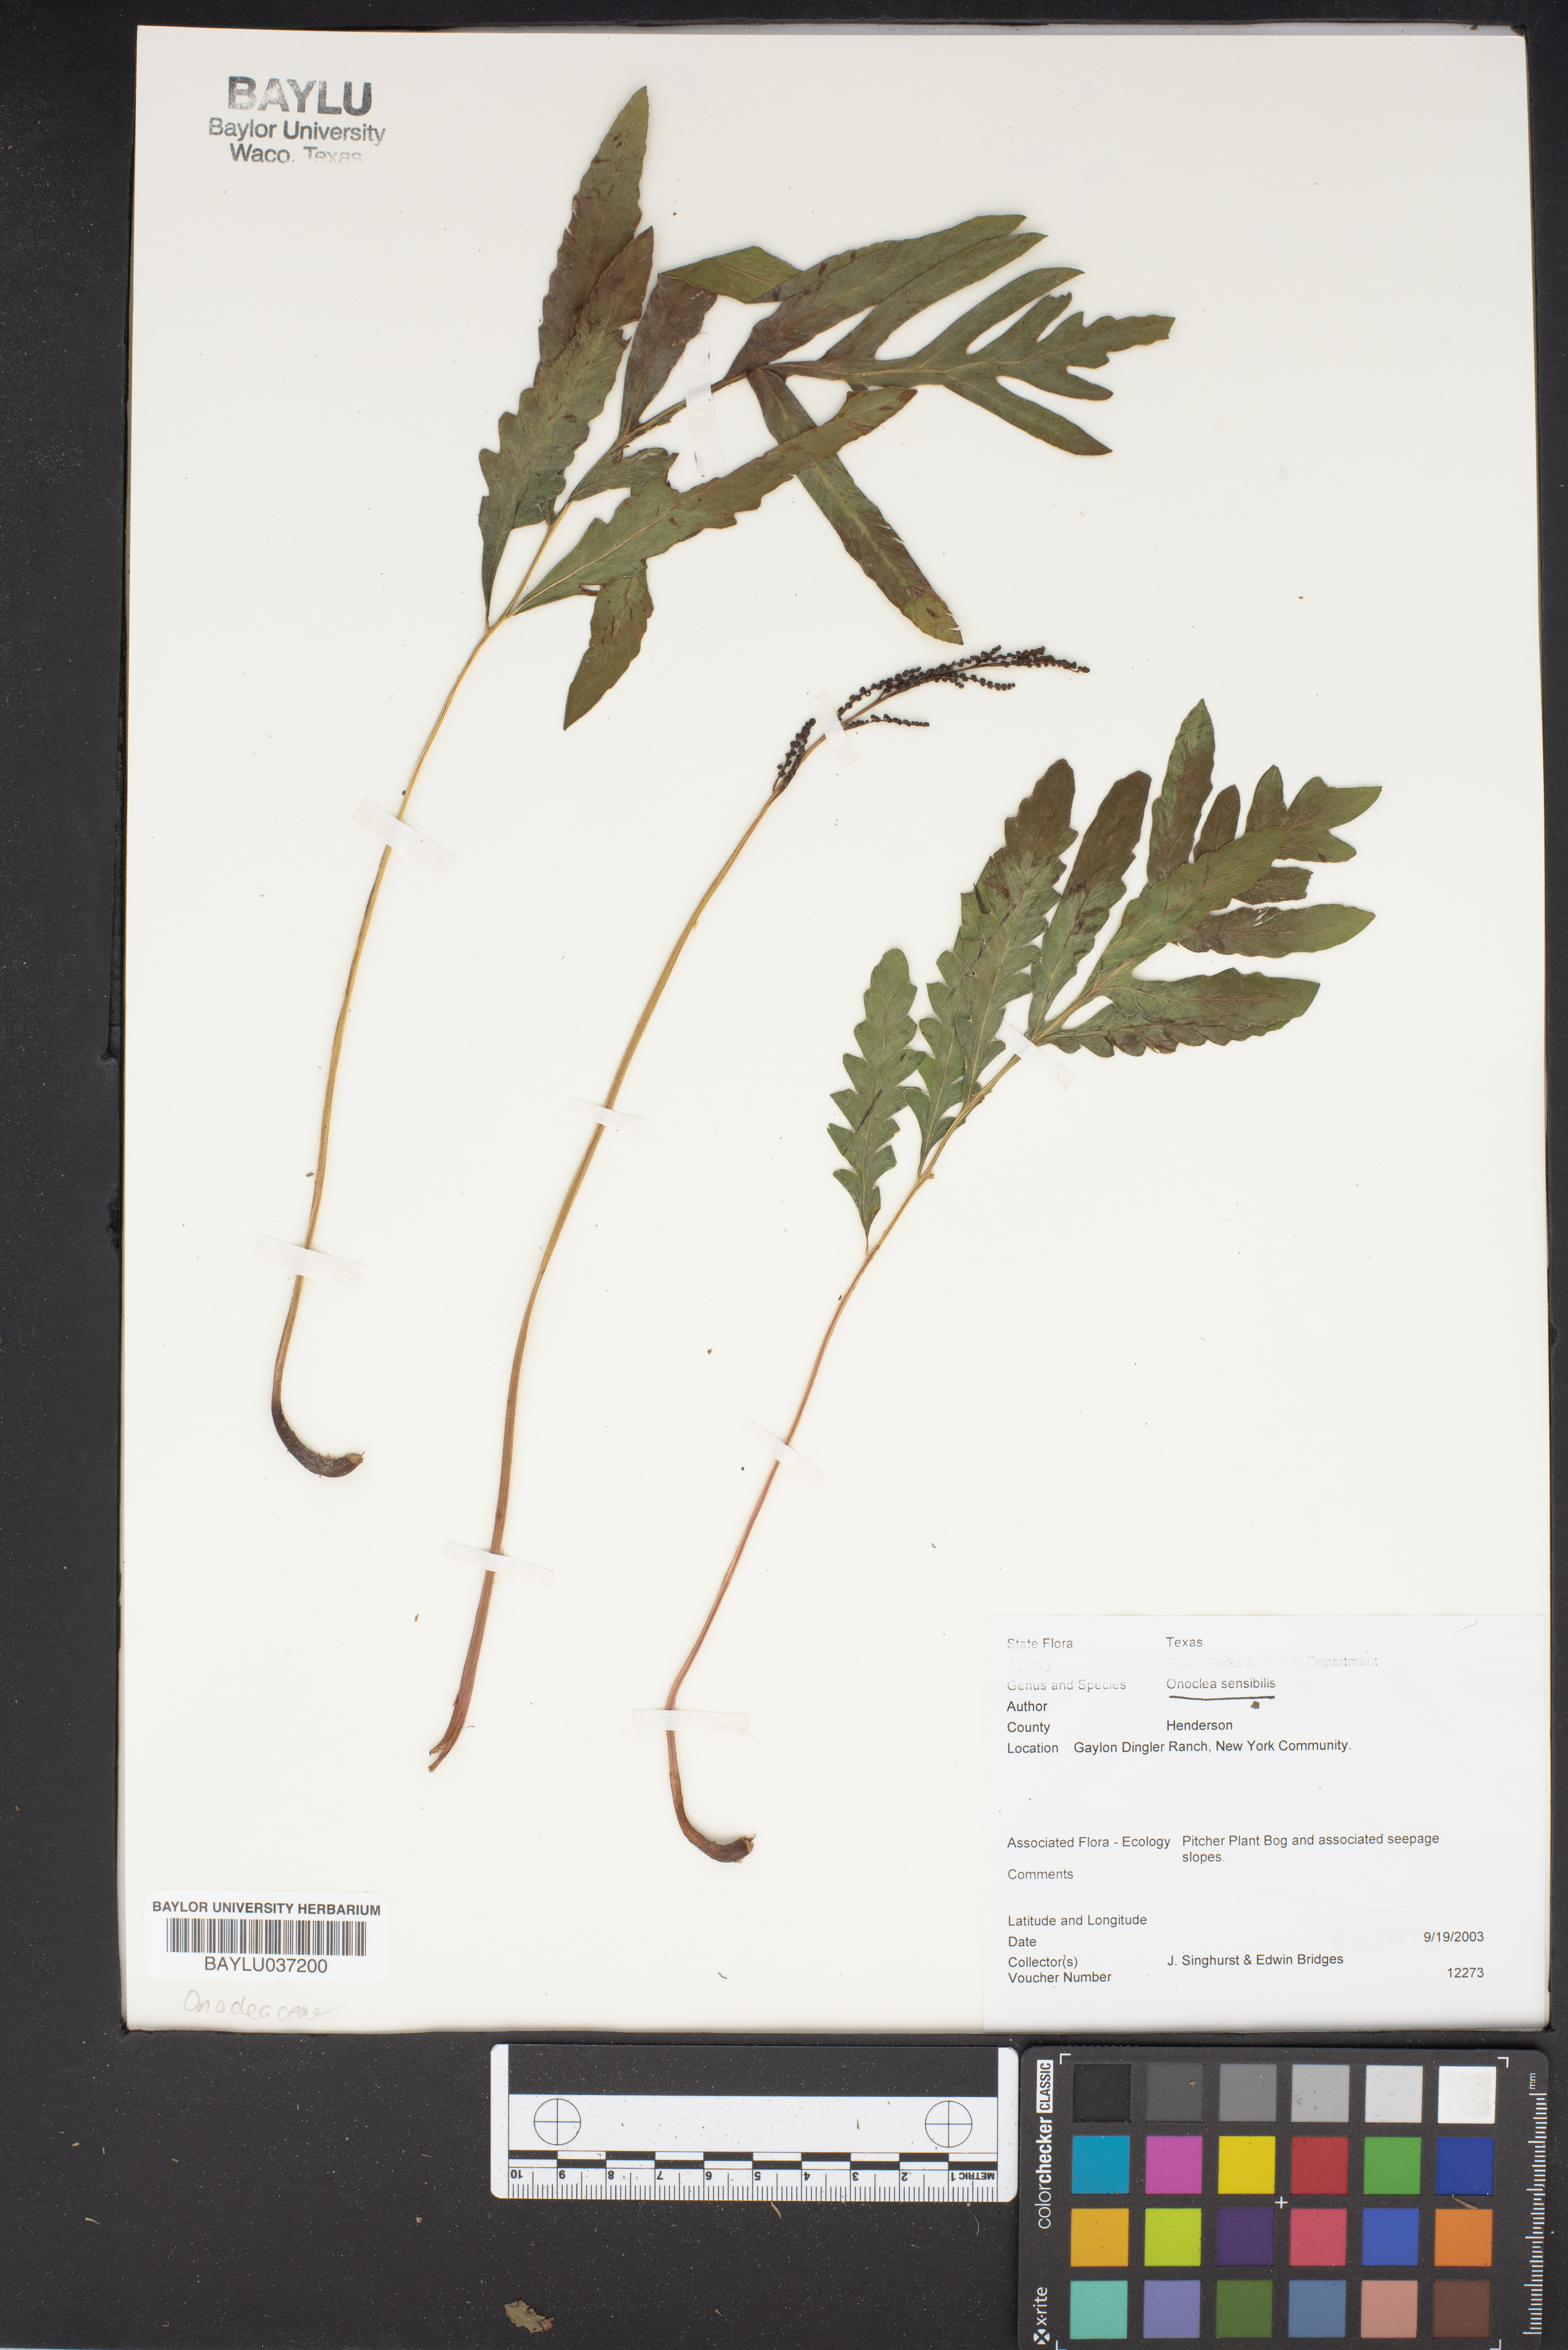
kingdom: Plantae
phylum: Tracheophyta
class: Polypodiopsida
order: Polypodiales
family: Onocleaceae
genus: Onoclea
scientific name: Onoclea sensibilis
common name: Sensitive fern
